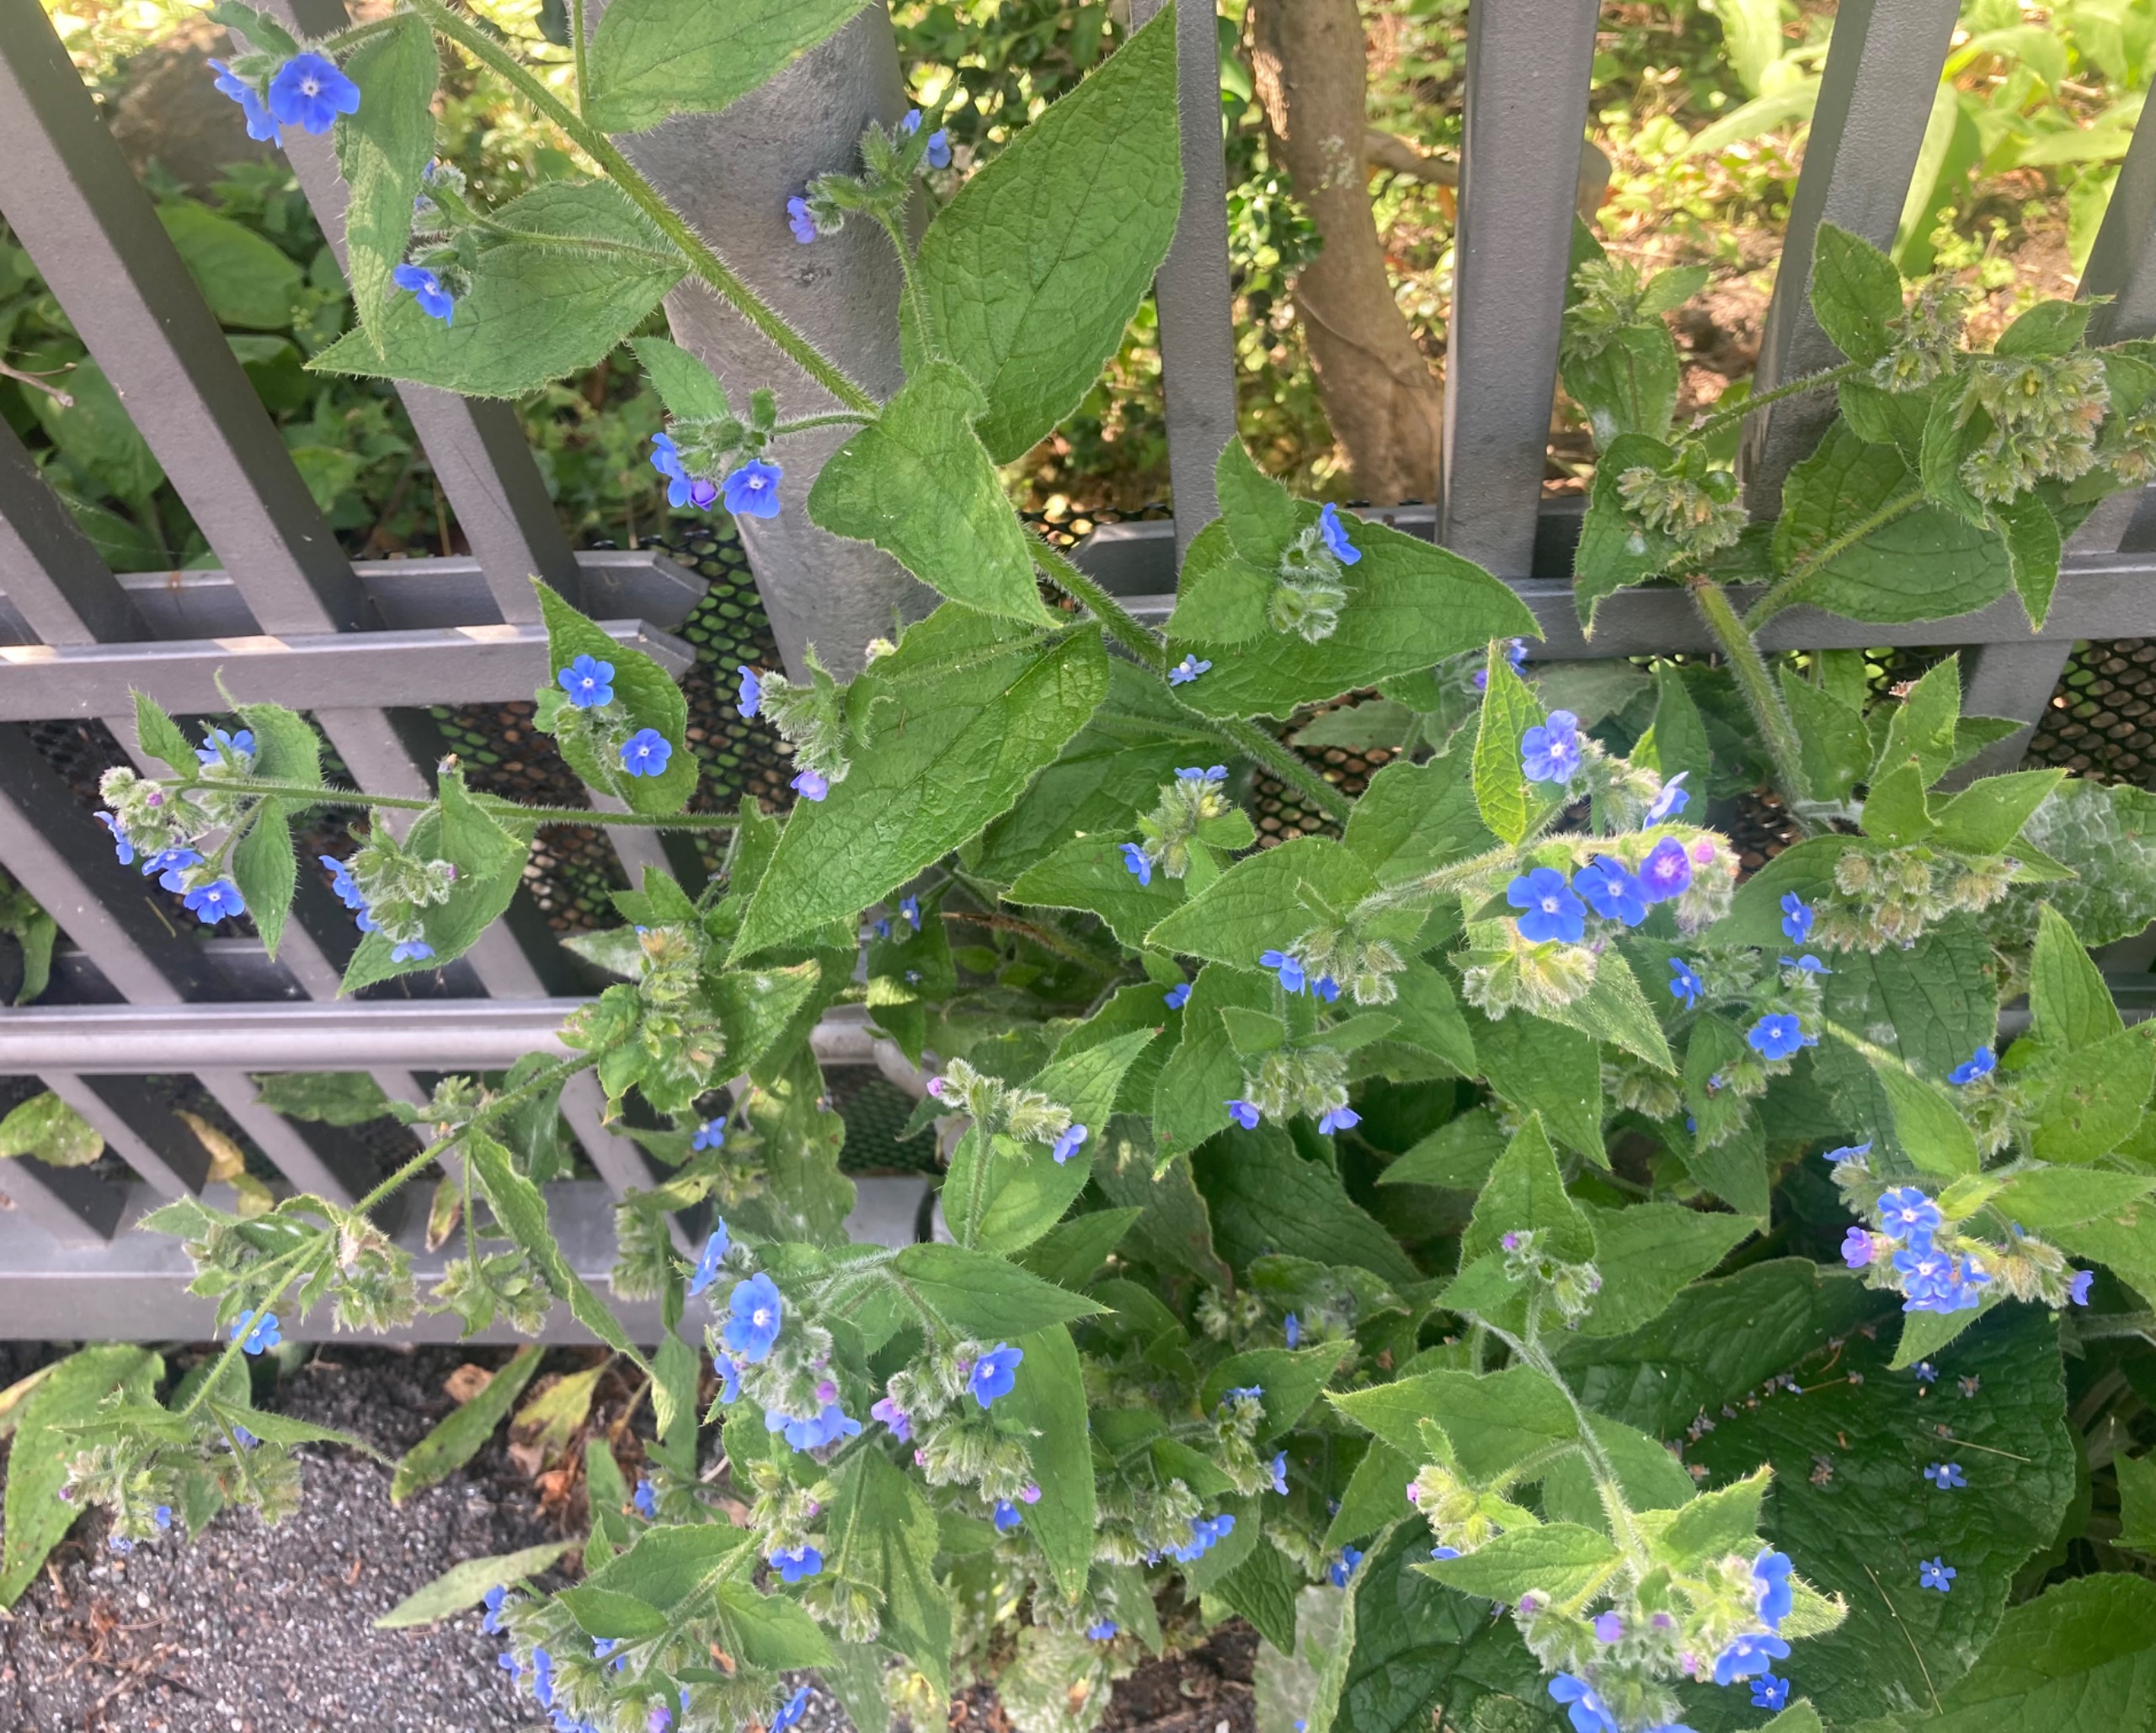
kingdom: Plantae
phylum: Tracheophyta
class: Magnoliopsida
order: Boraginales
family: Boraginaceae
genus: Pentaglottis
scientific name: Pentaglottis sempervirens
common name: Femtunge
